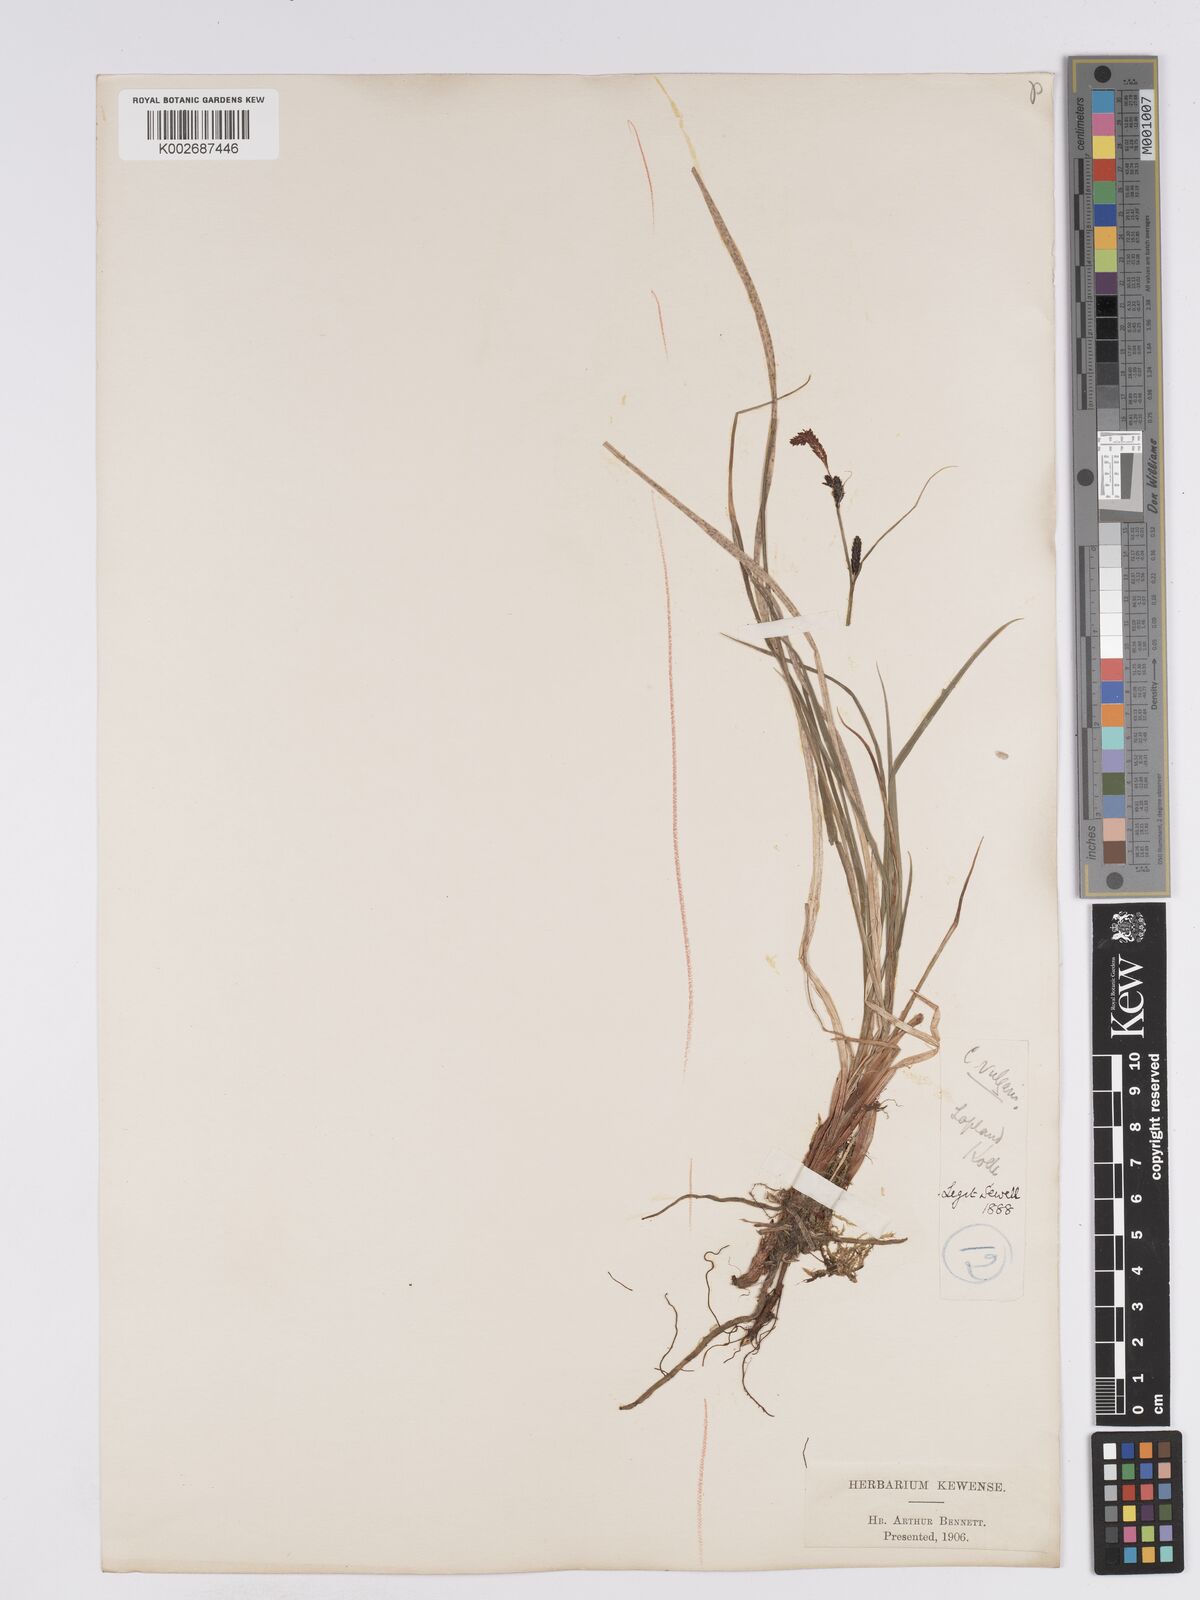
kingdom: Plantae
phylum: Tracheophyta
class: Liliopsida
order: Poales
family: Cyperaceae
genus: Carex
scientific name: Carex nigra
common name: Common sedge
